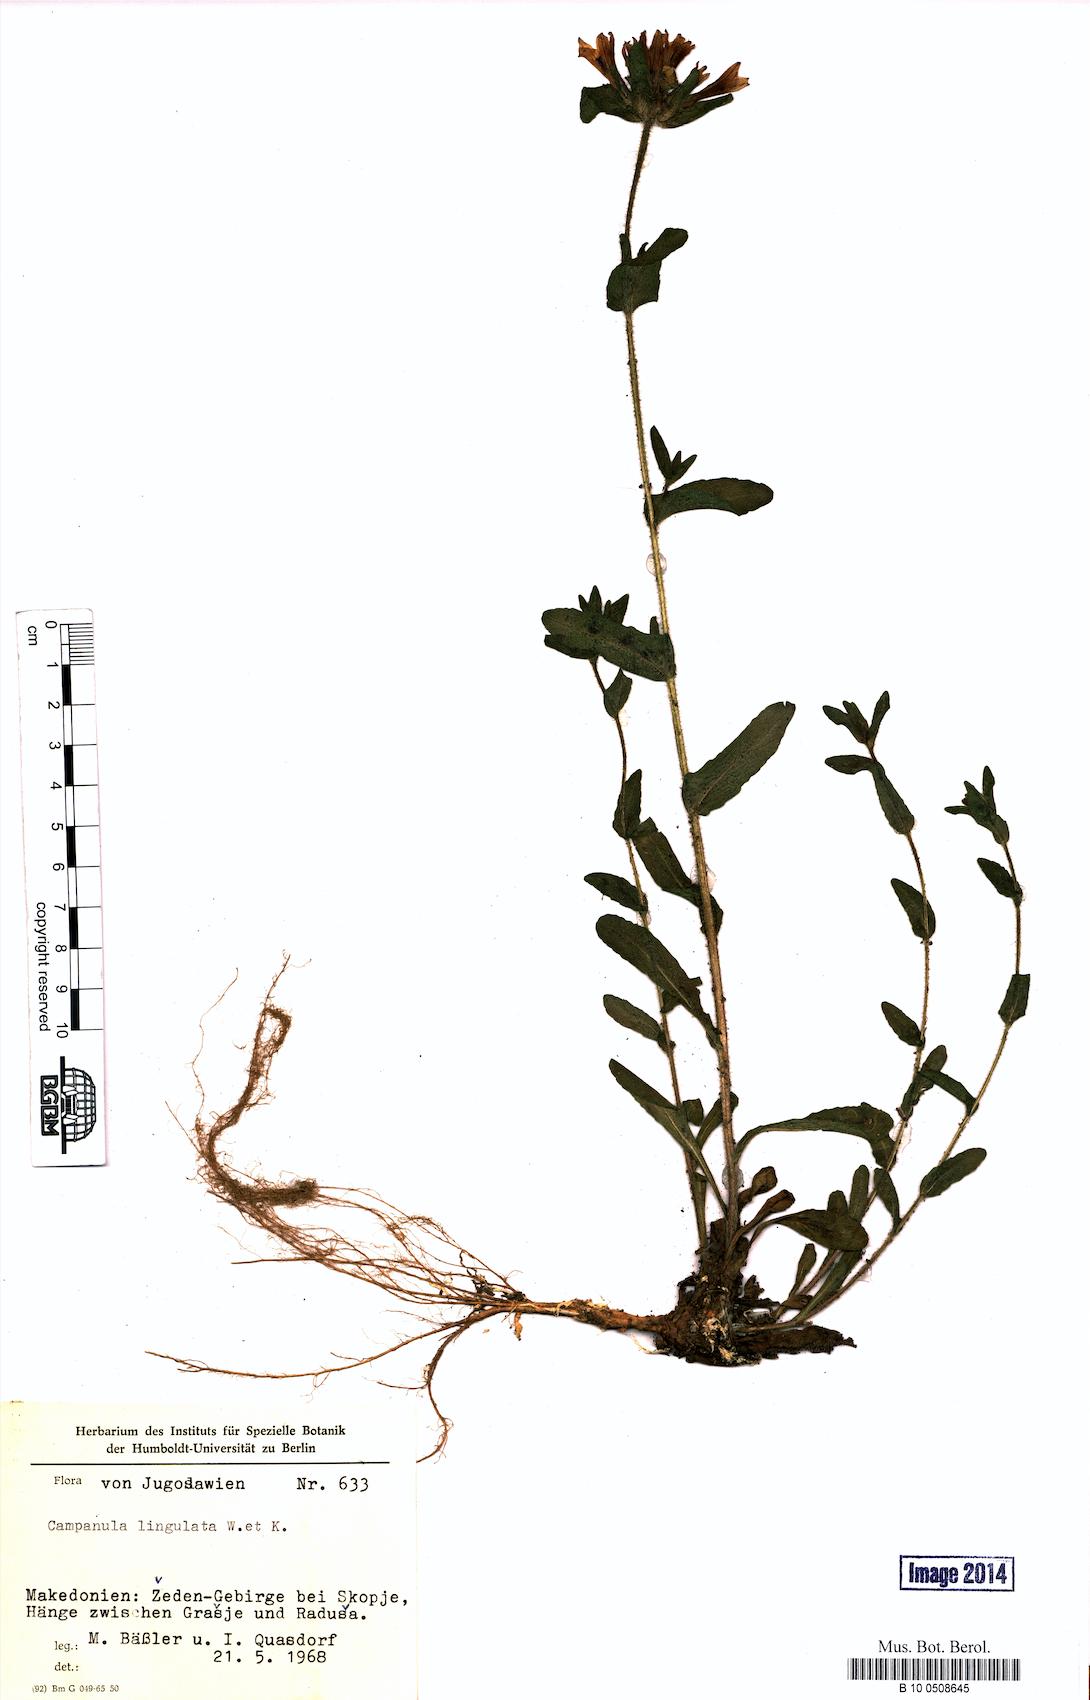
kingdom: Plantae
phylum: Tracheophyta
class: Magnoliopsida
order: Asterales
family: Campanulaceae
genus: Campanula
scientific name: Campanula lingulata
